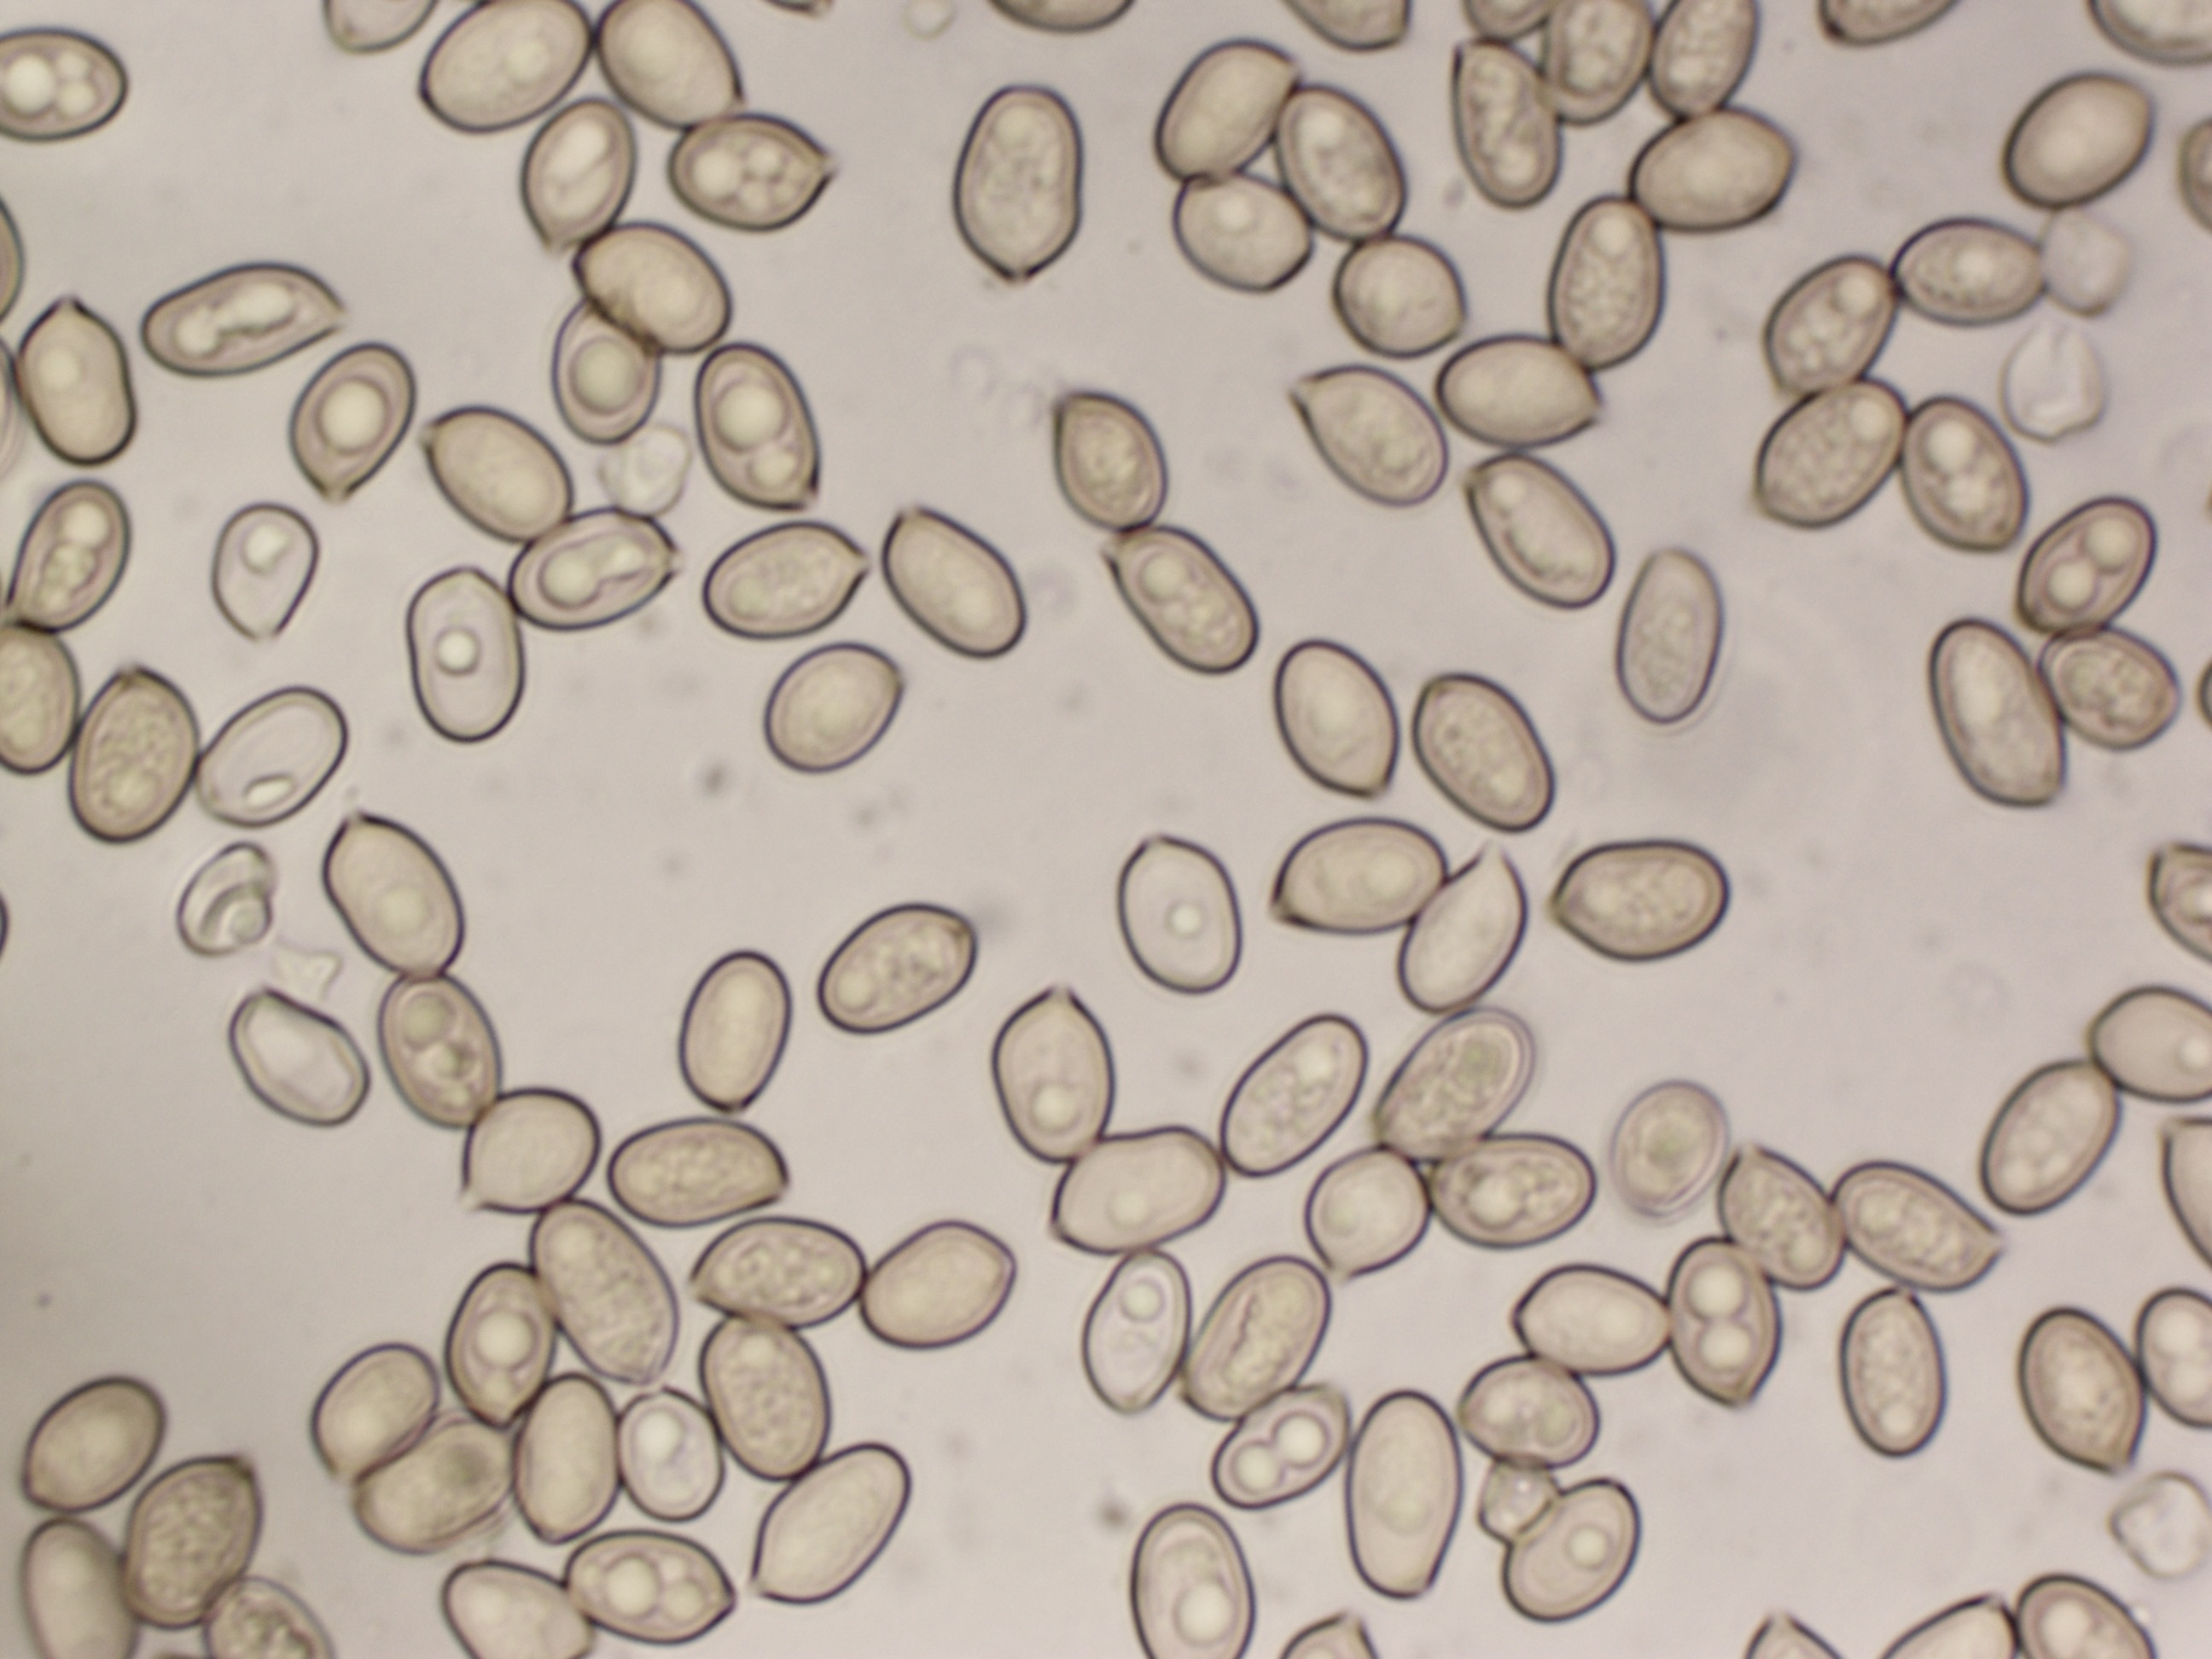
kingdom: Fungi
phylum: Basidiomycota
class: Agaricomycetes
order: Agaricales
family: Pluteaceae
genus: Volvariella
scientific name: Volvariella bombycina
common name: silkehåret posesvamp
